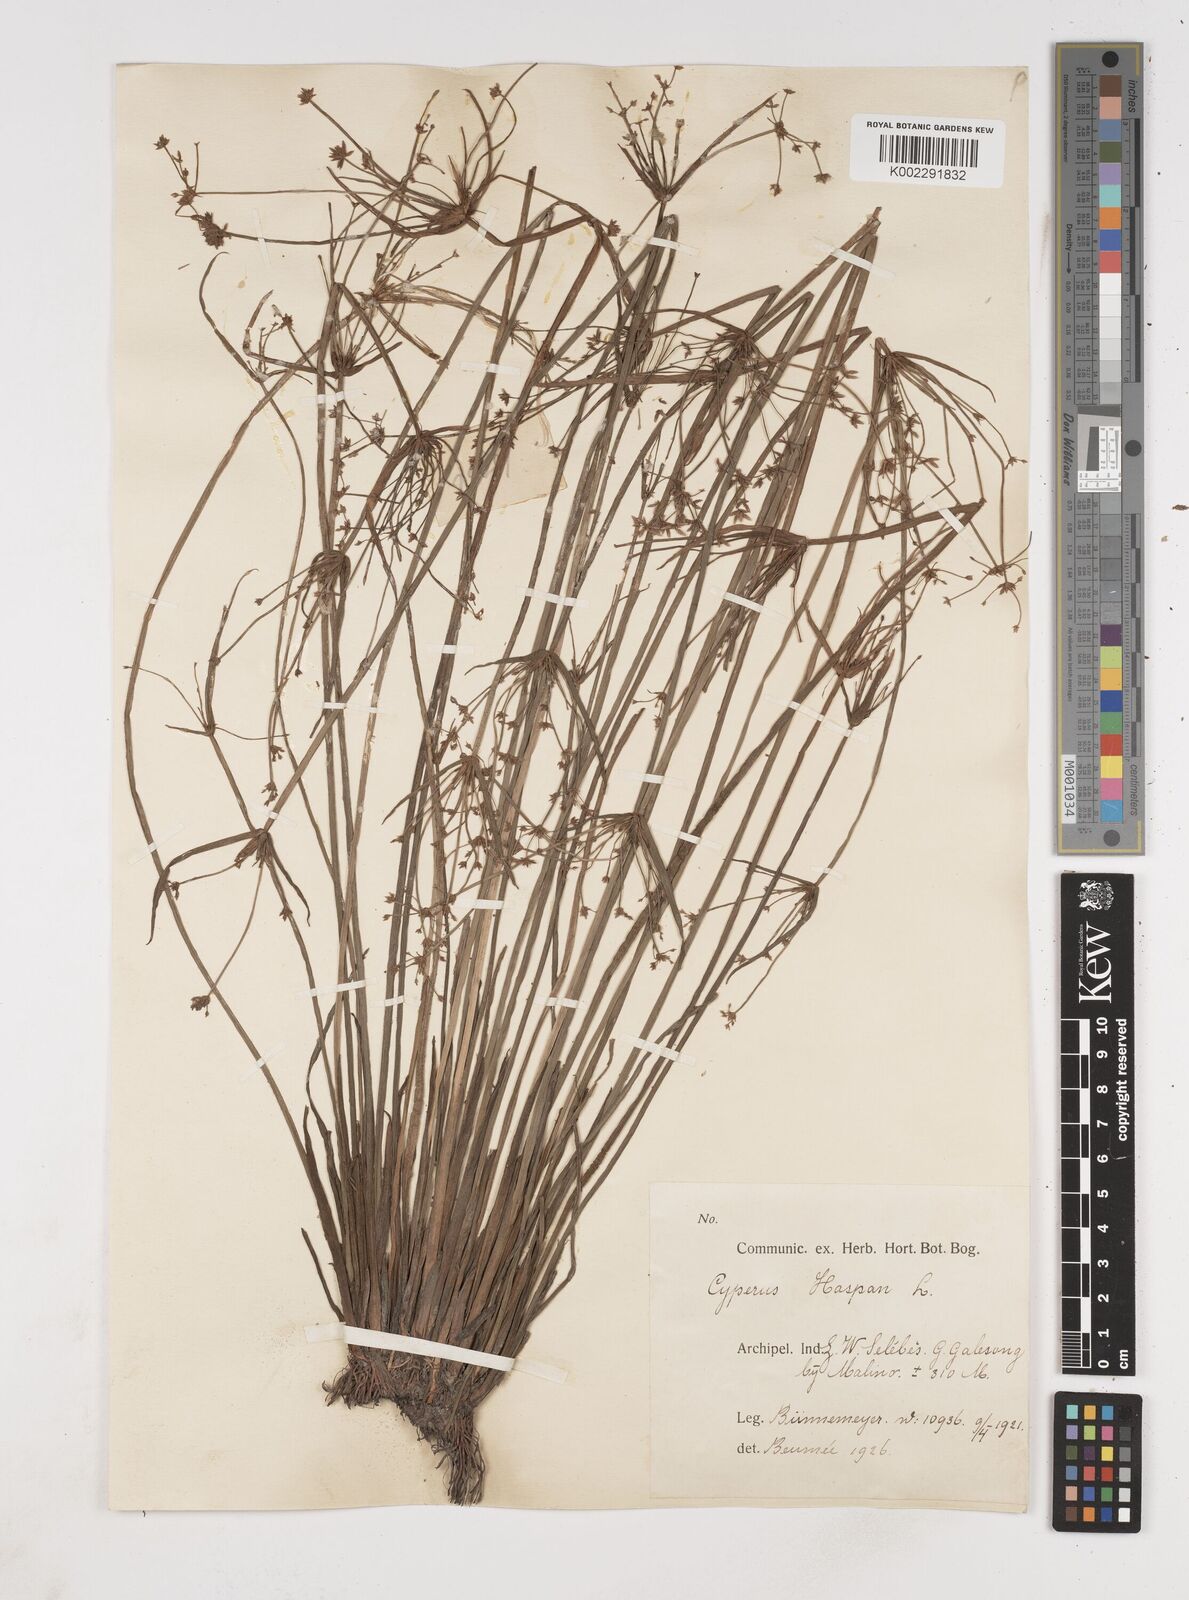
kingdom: Plantae
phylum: Tracheophyta
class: Liliopsida
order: Poales
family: Cyperaceae
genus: Cyperus
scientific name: Cyperus haspan
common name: Haspan flatsedge
